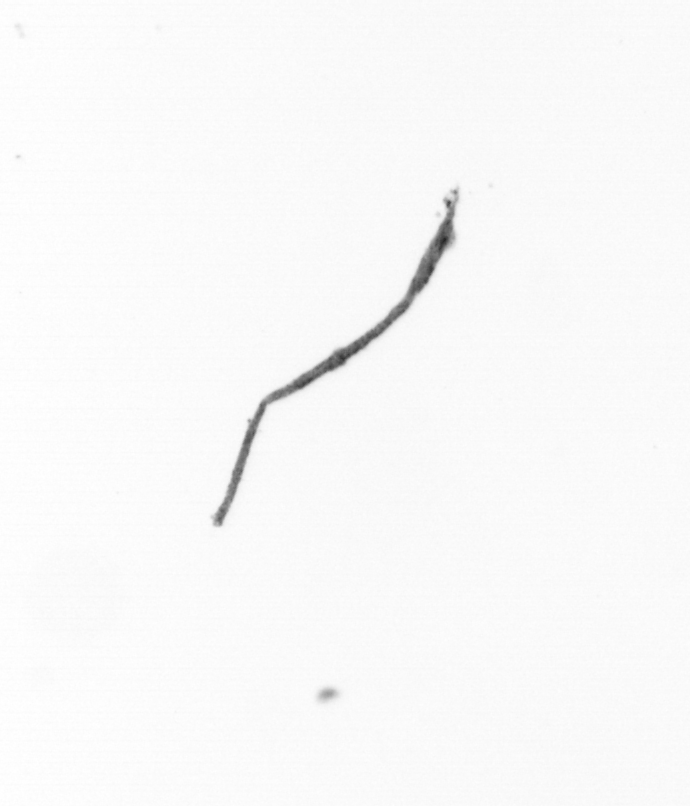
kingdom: Chromista
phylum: Ochrophyta
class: Bacillariophyceae
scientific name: Bacillariophyceae
